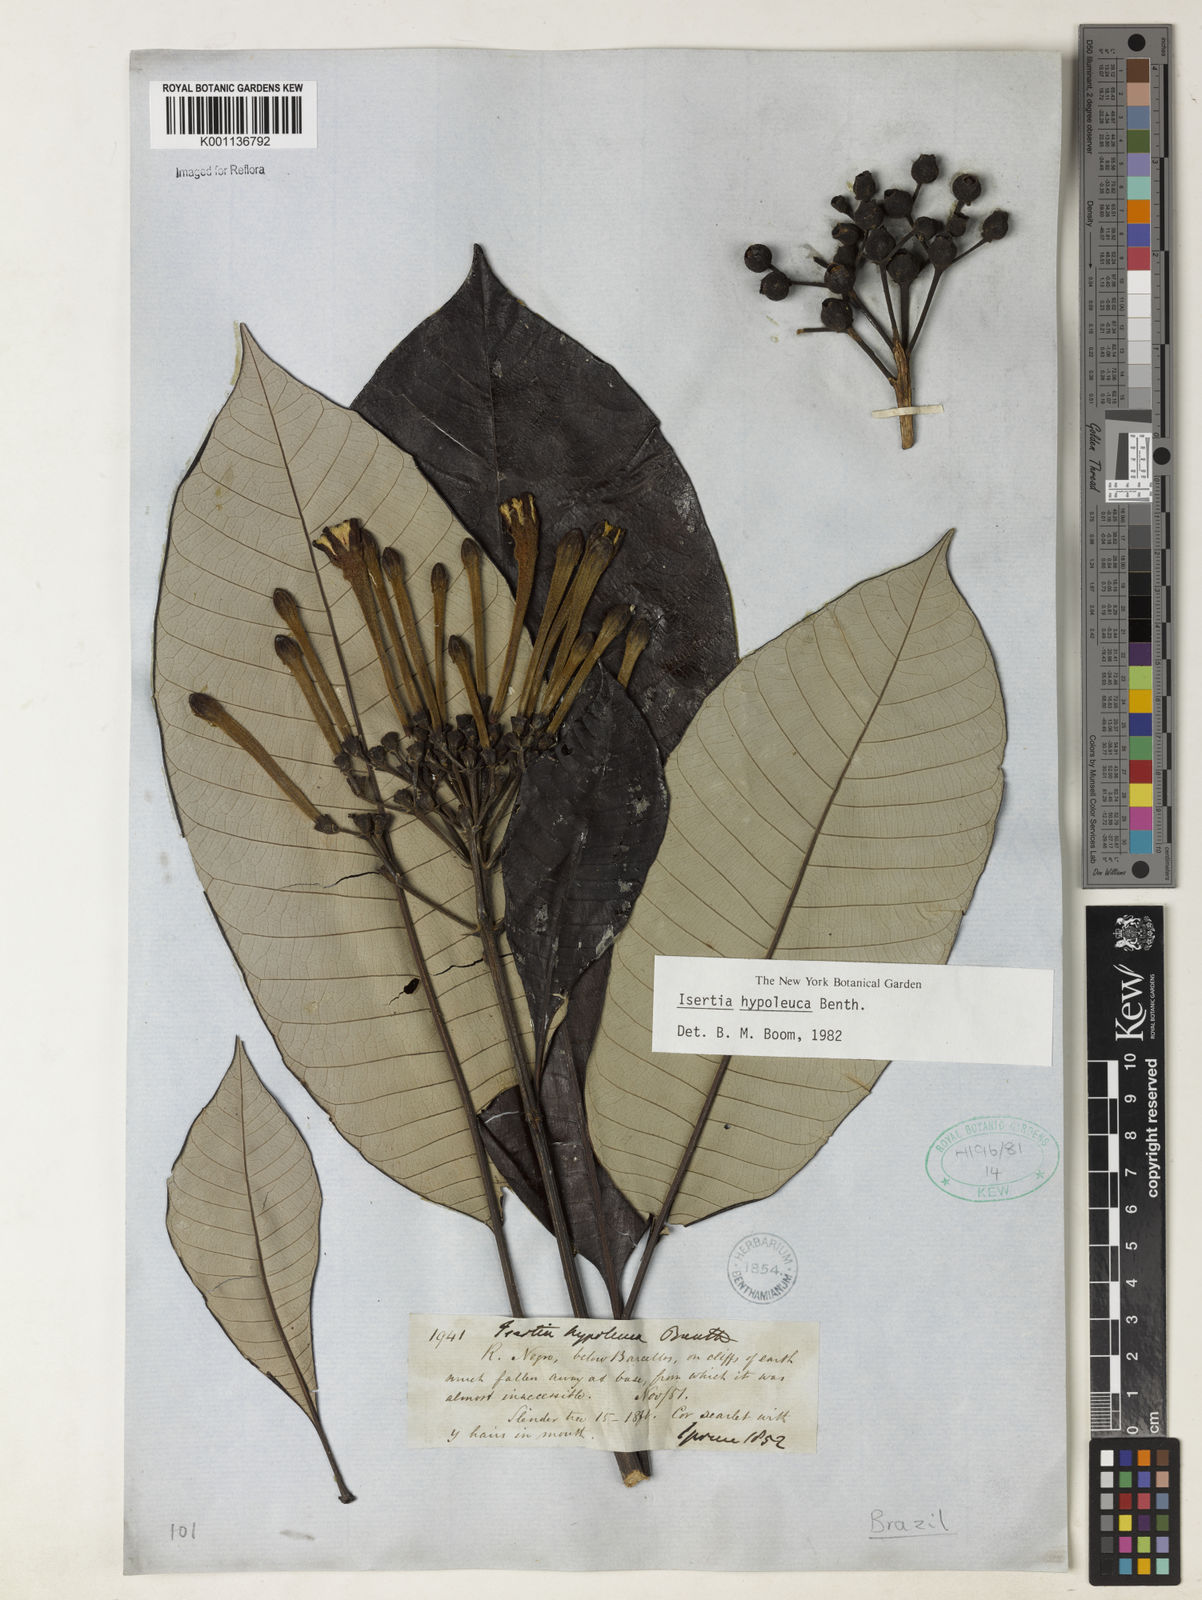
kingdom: Plantae
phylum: Tracheophyta
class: Magnoliopsida
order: Gentianales
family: Rubiaceae
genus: Isertia
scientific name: Isertia hypoleuca
